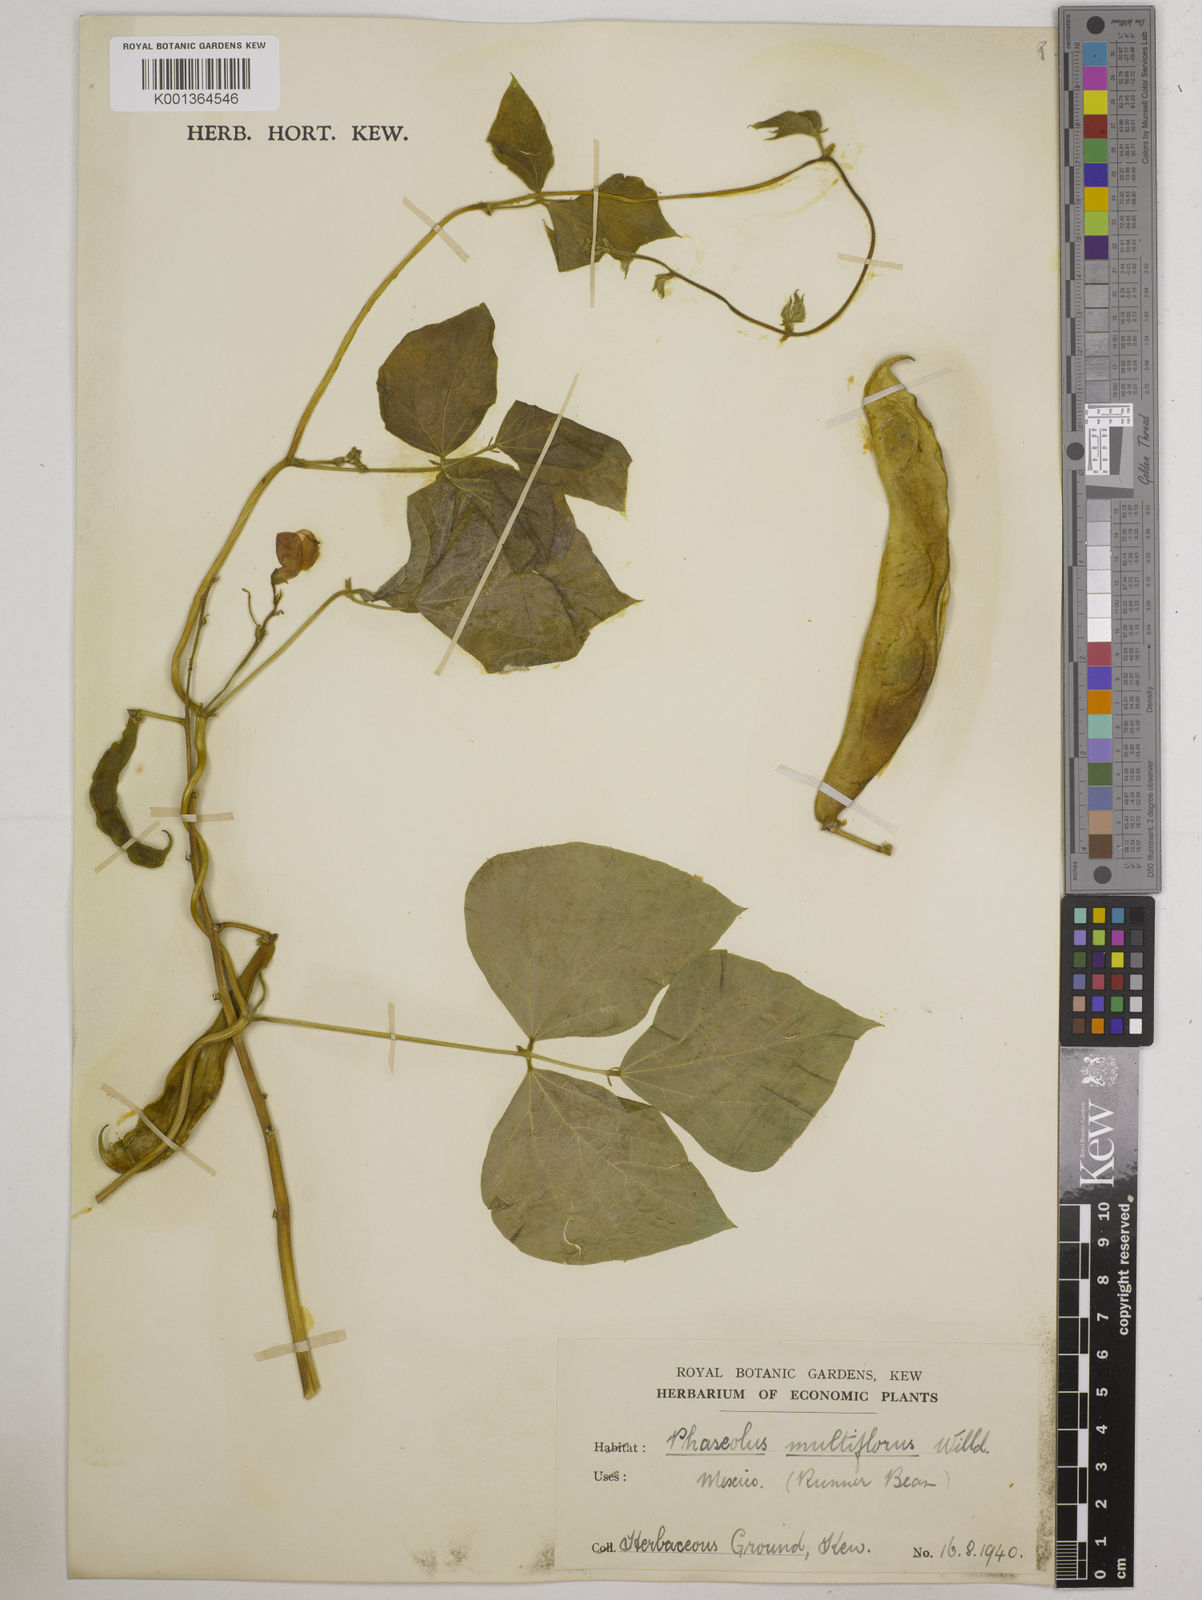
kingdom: Plantae
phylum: Tracheophyta
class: Magnoliopsida
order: Fabales
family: Fabaceae
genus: Phaseolus
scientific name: Phaseolus coccineus
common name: Runner bean
